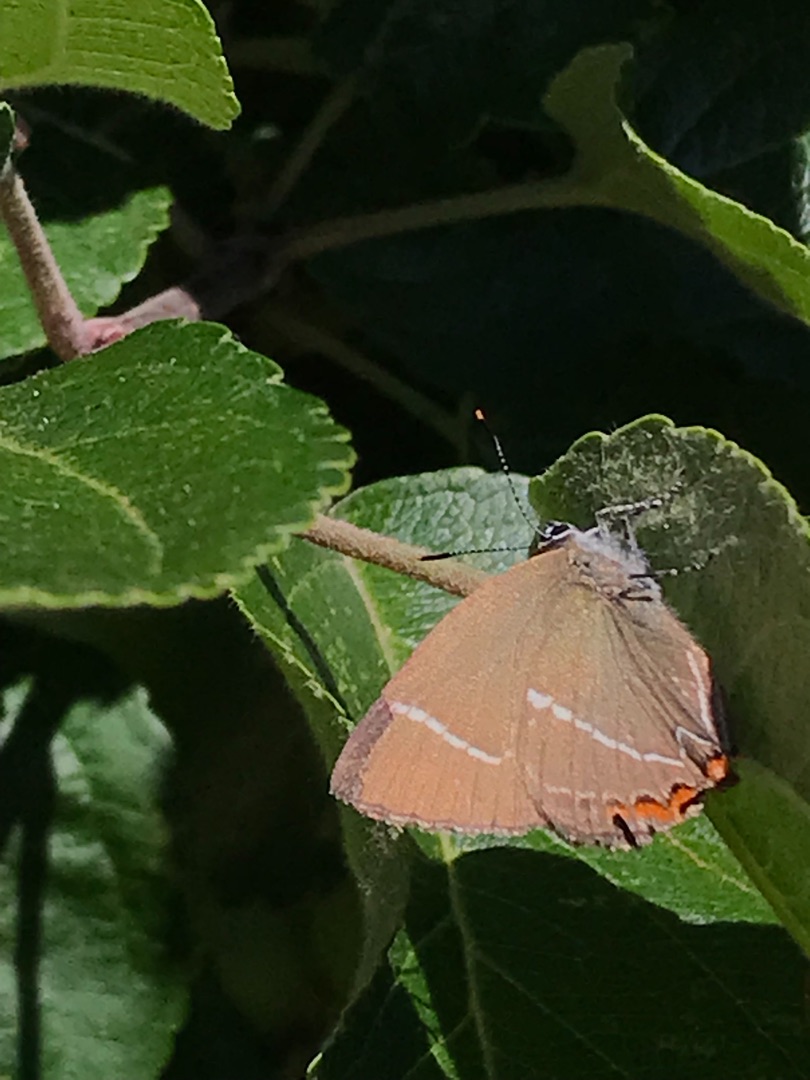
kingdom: Animalia
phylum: Arthropoda
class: Insecta
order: Lepidoptera
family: Lycaenidae
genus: Satyrium
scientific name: Satyrium w-album
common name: Det hvide W
